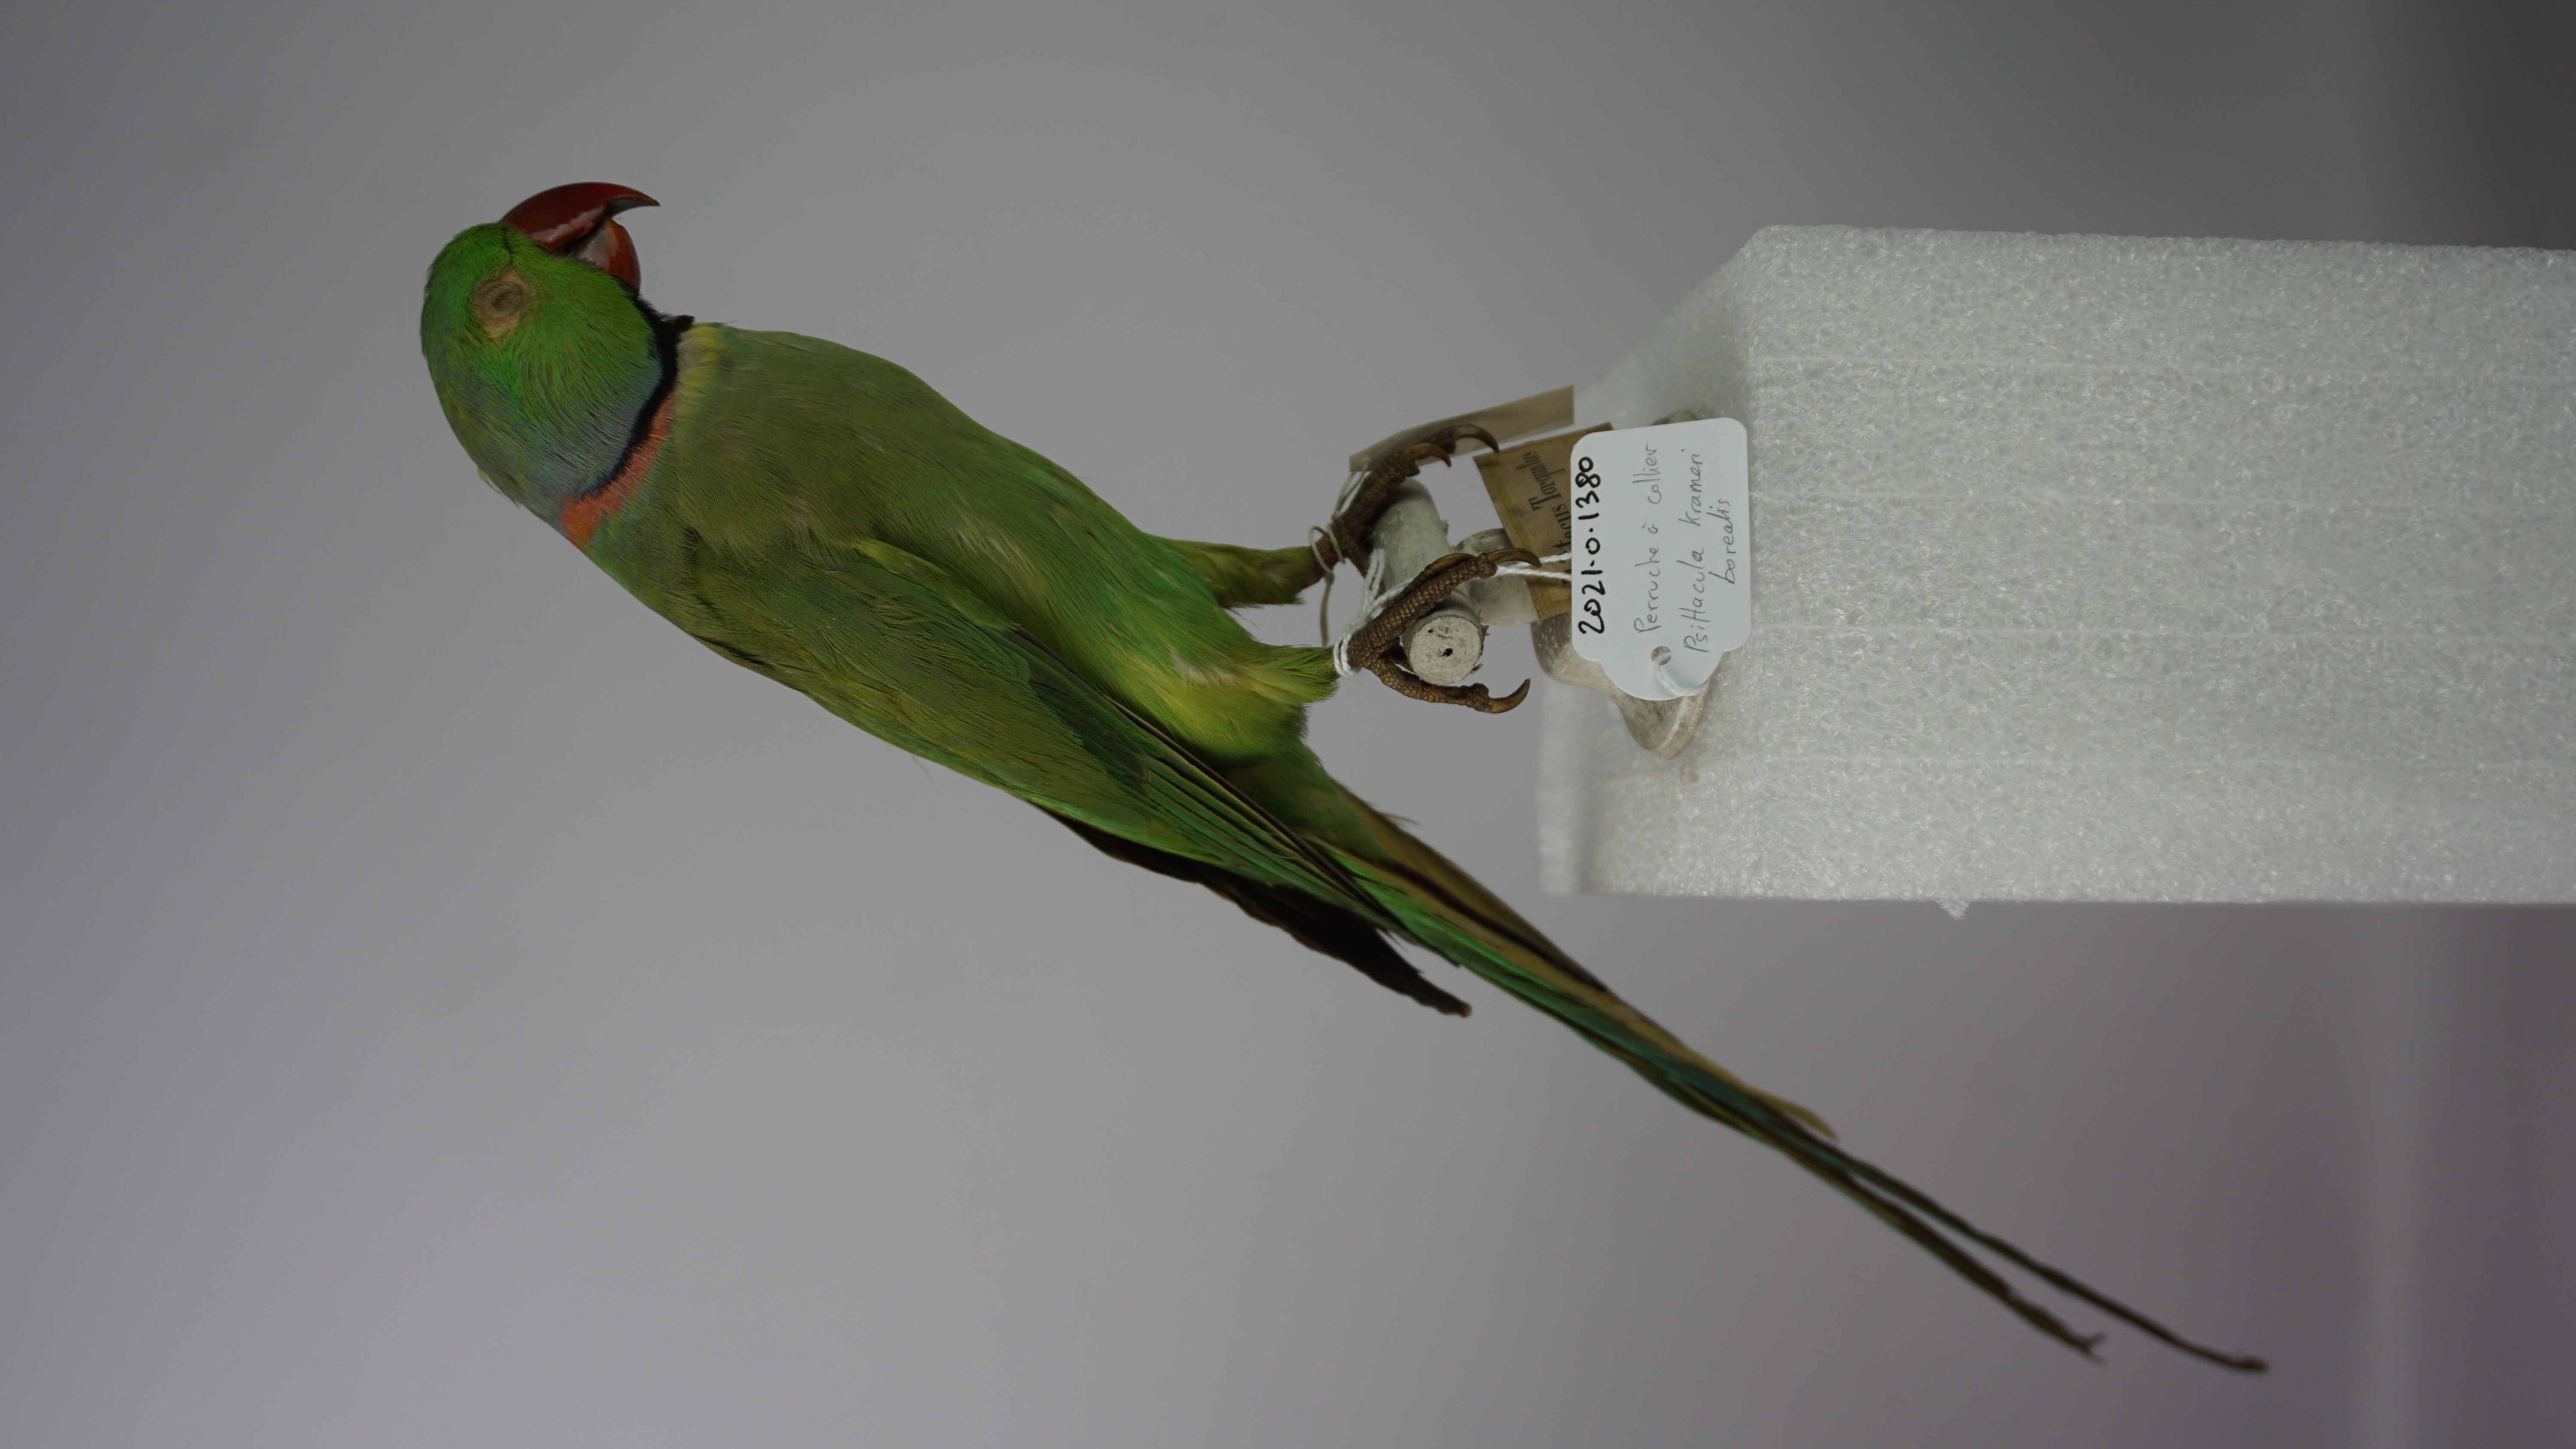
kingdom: Animalia
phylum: Chordata
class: Aves
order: Psittaciformes
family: Psittacidae
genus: Psittacula
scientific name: Psittacula krameri
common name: Rose-ringed parakeet
